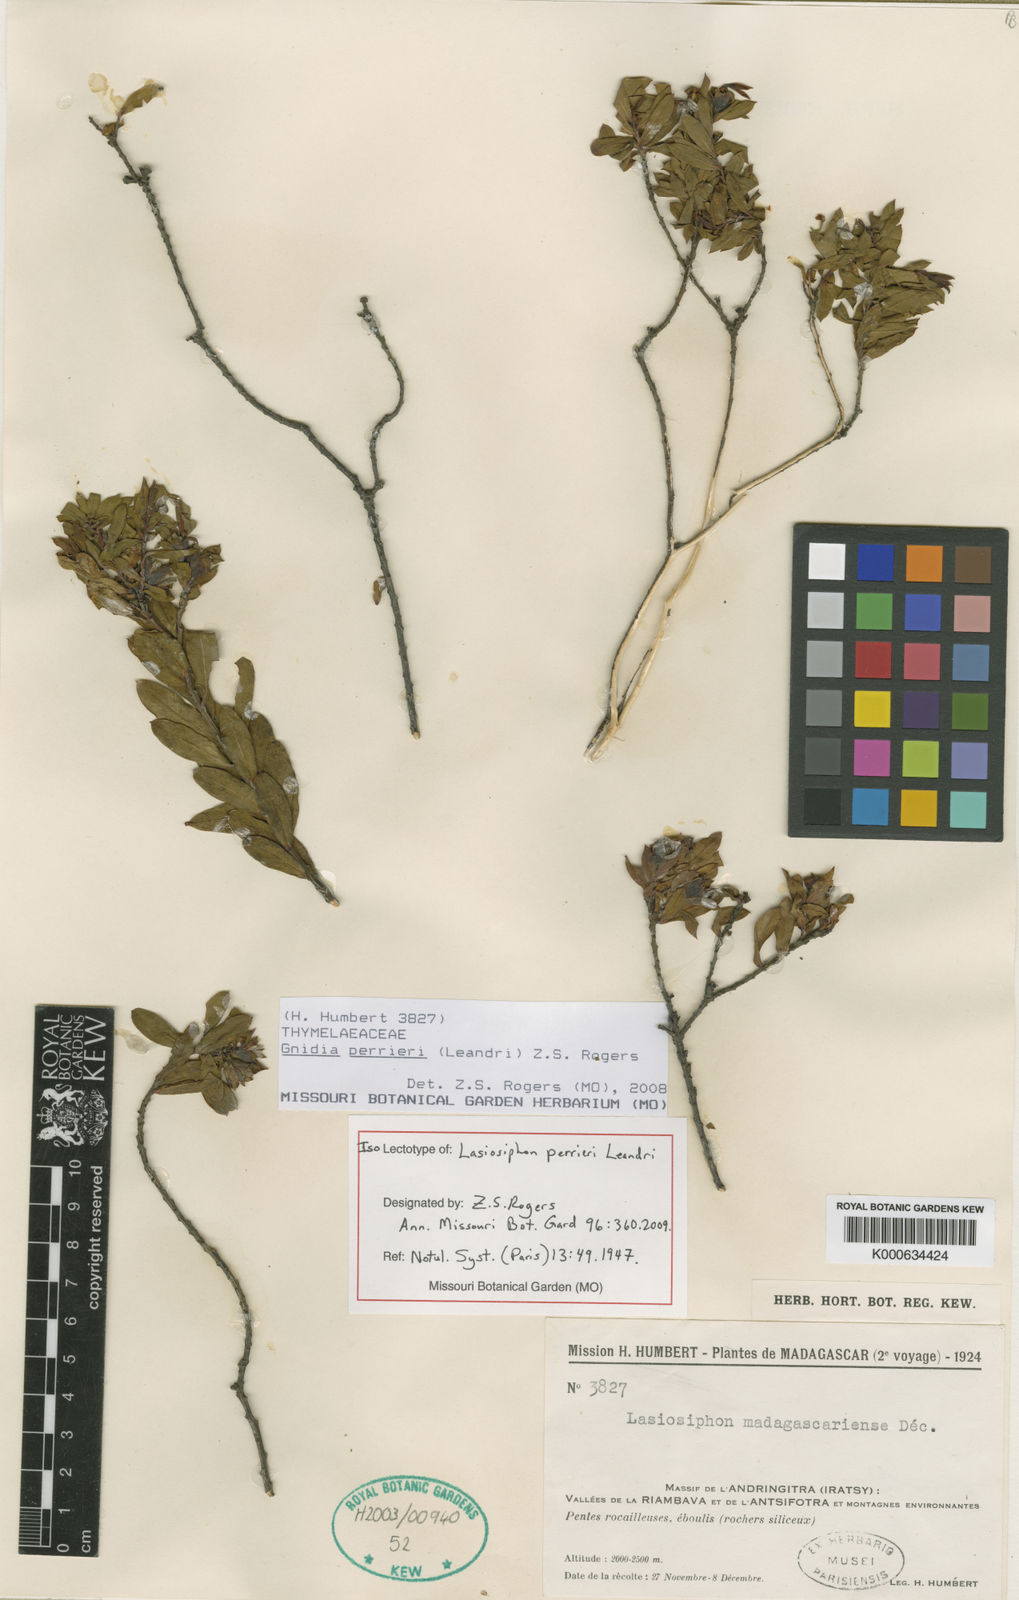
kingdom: Plantae
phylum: Tracheophyta
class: Magnoliopsida
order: Malvales
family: Thymelaeaceae
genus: Gnidia
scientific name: Gnidia perrieri
